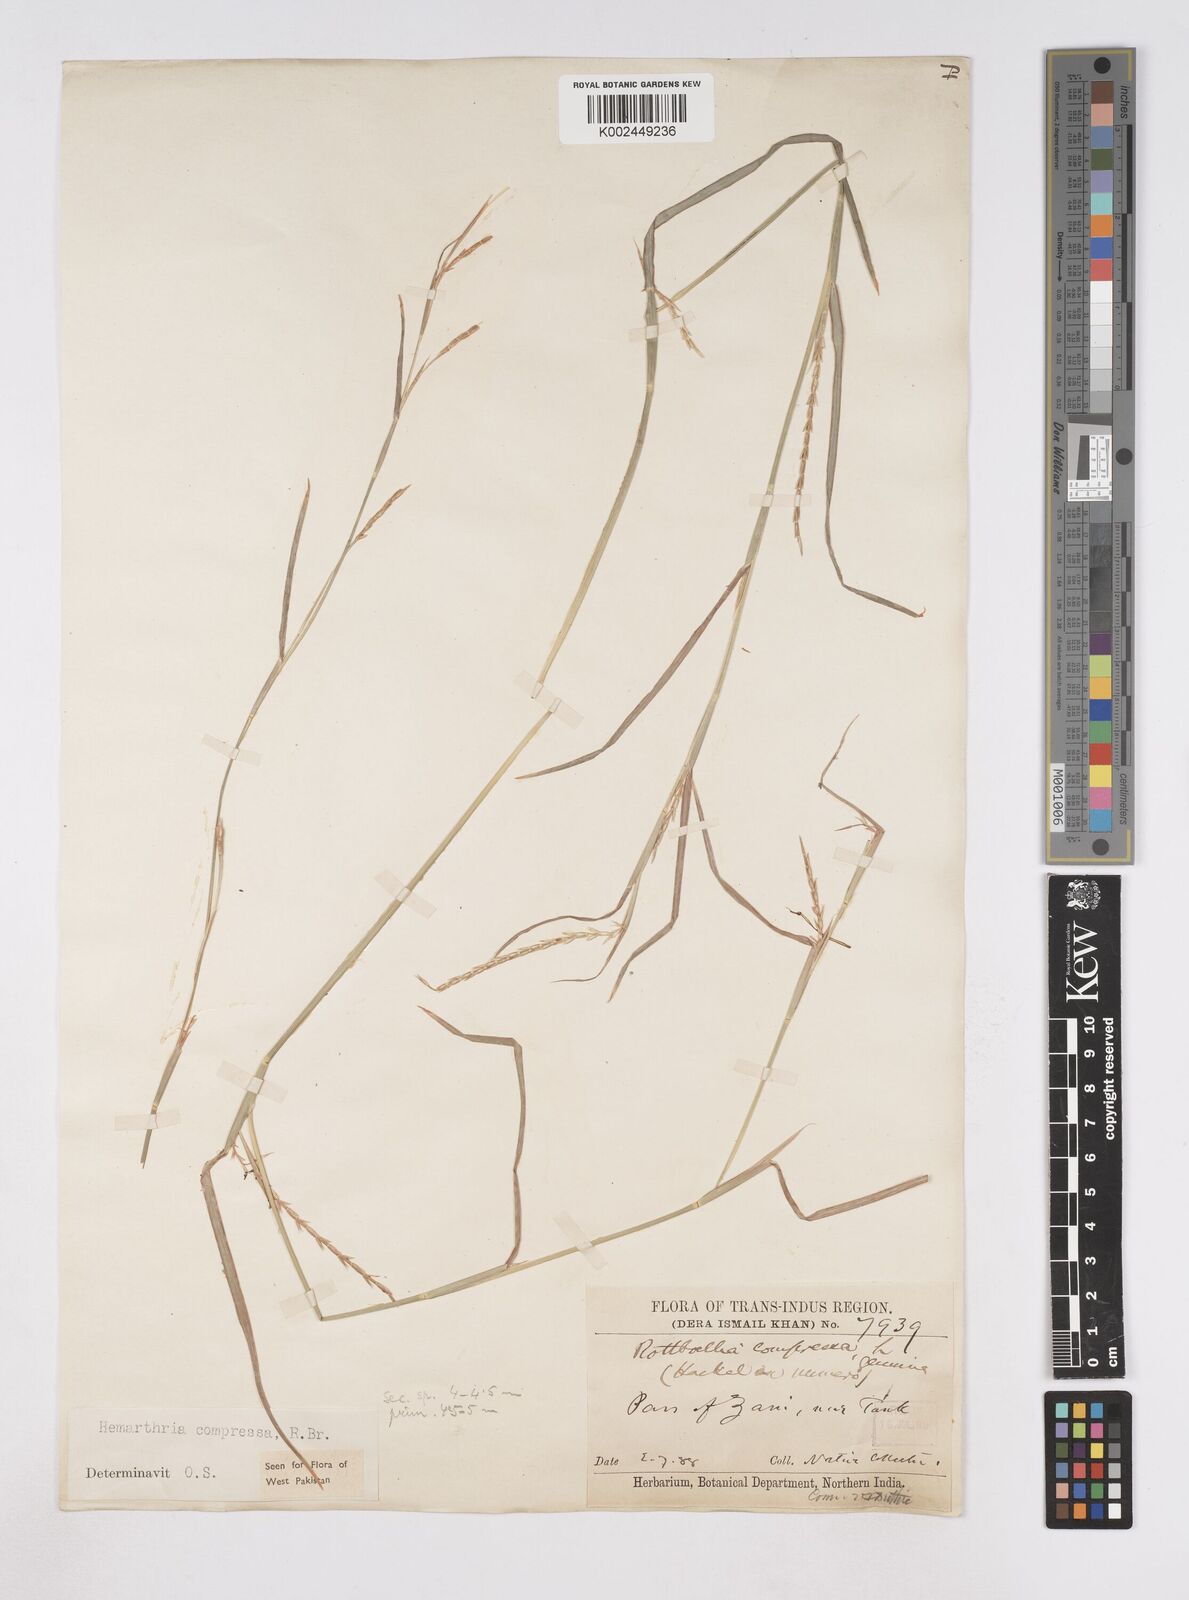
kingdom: Plantae
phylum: Tracheophyta
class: Liliopsida
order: Poales
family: Poaceae
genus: Hemarthria
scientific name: Hemarthria compressa
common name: Whip grass
